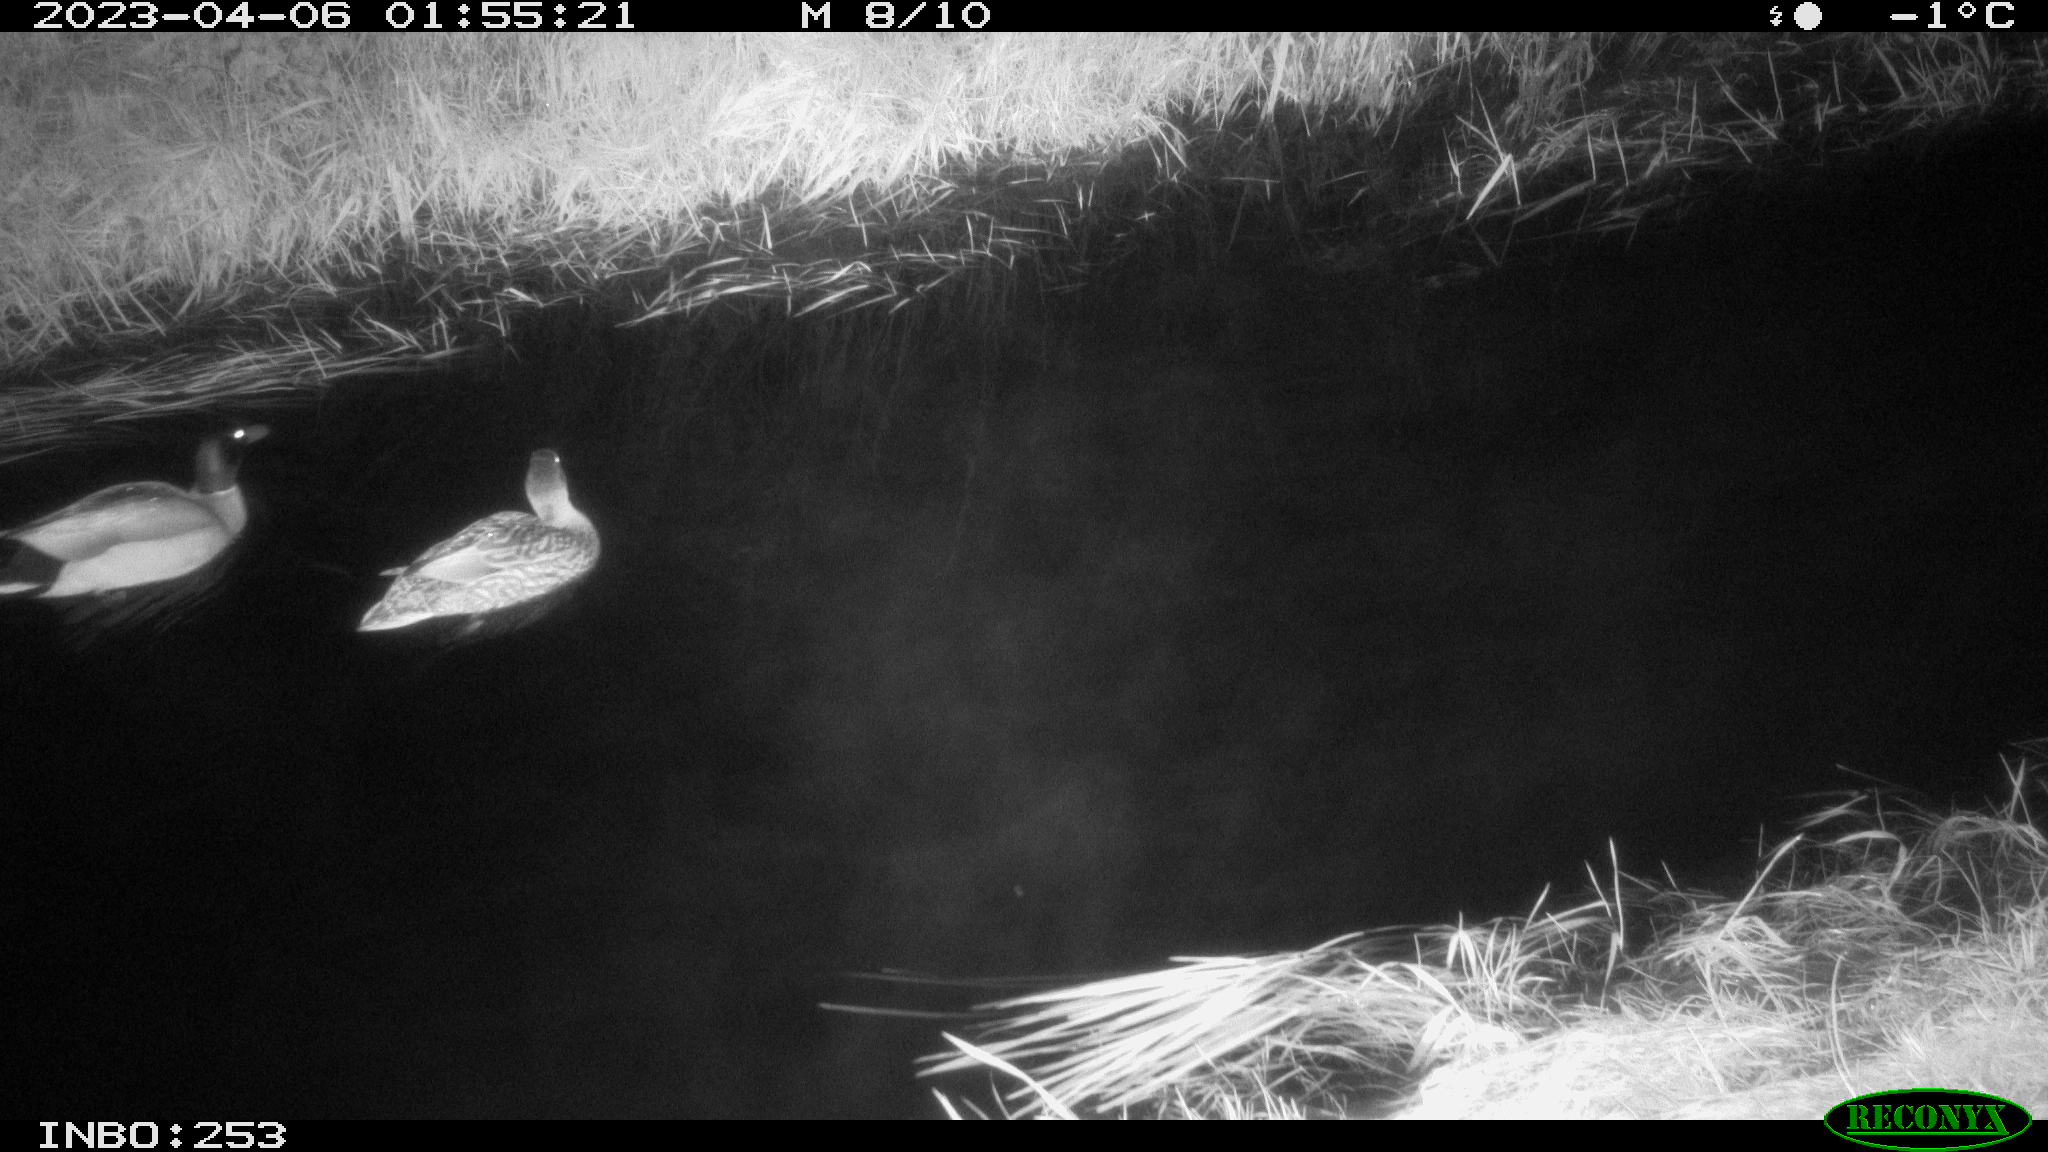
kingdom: Animalia
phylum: Chordata
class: Aves
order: Anseriformes
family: Anatidae
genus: Anas
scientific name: Anas
